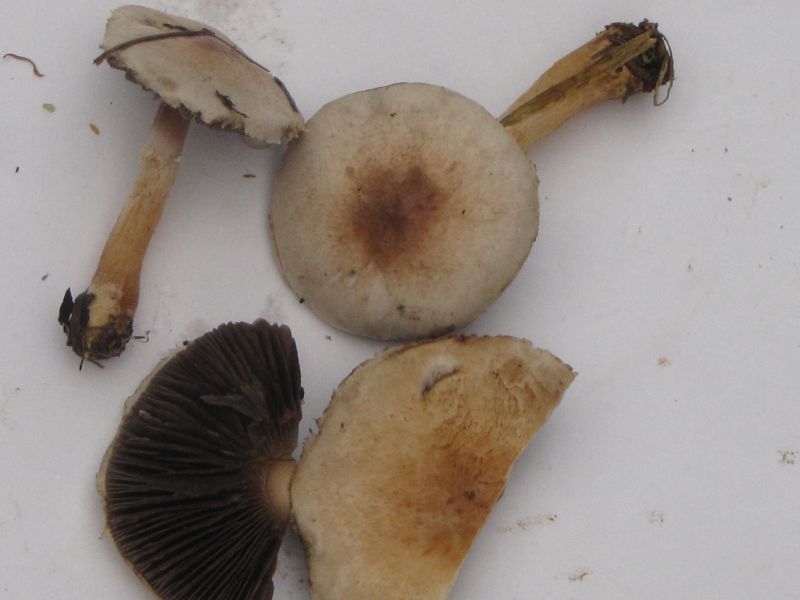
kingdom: Fungi
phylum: Basidiomycota
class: Agaricomycetes
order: Agaricales
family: Agaricaceae
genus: Agaricus
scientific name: Agaricus dulcidulus
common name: blegrød champignon
